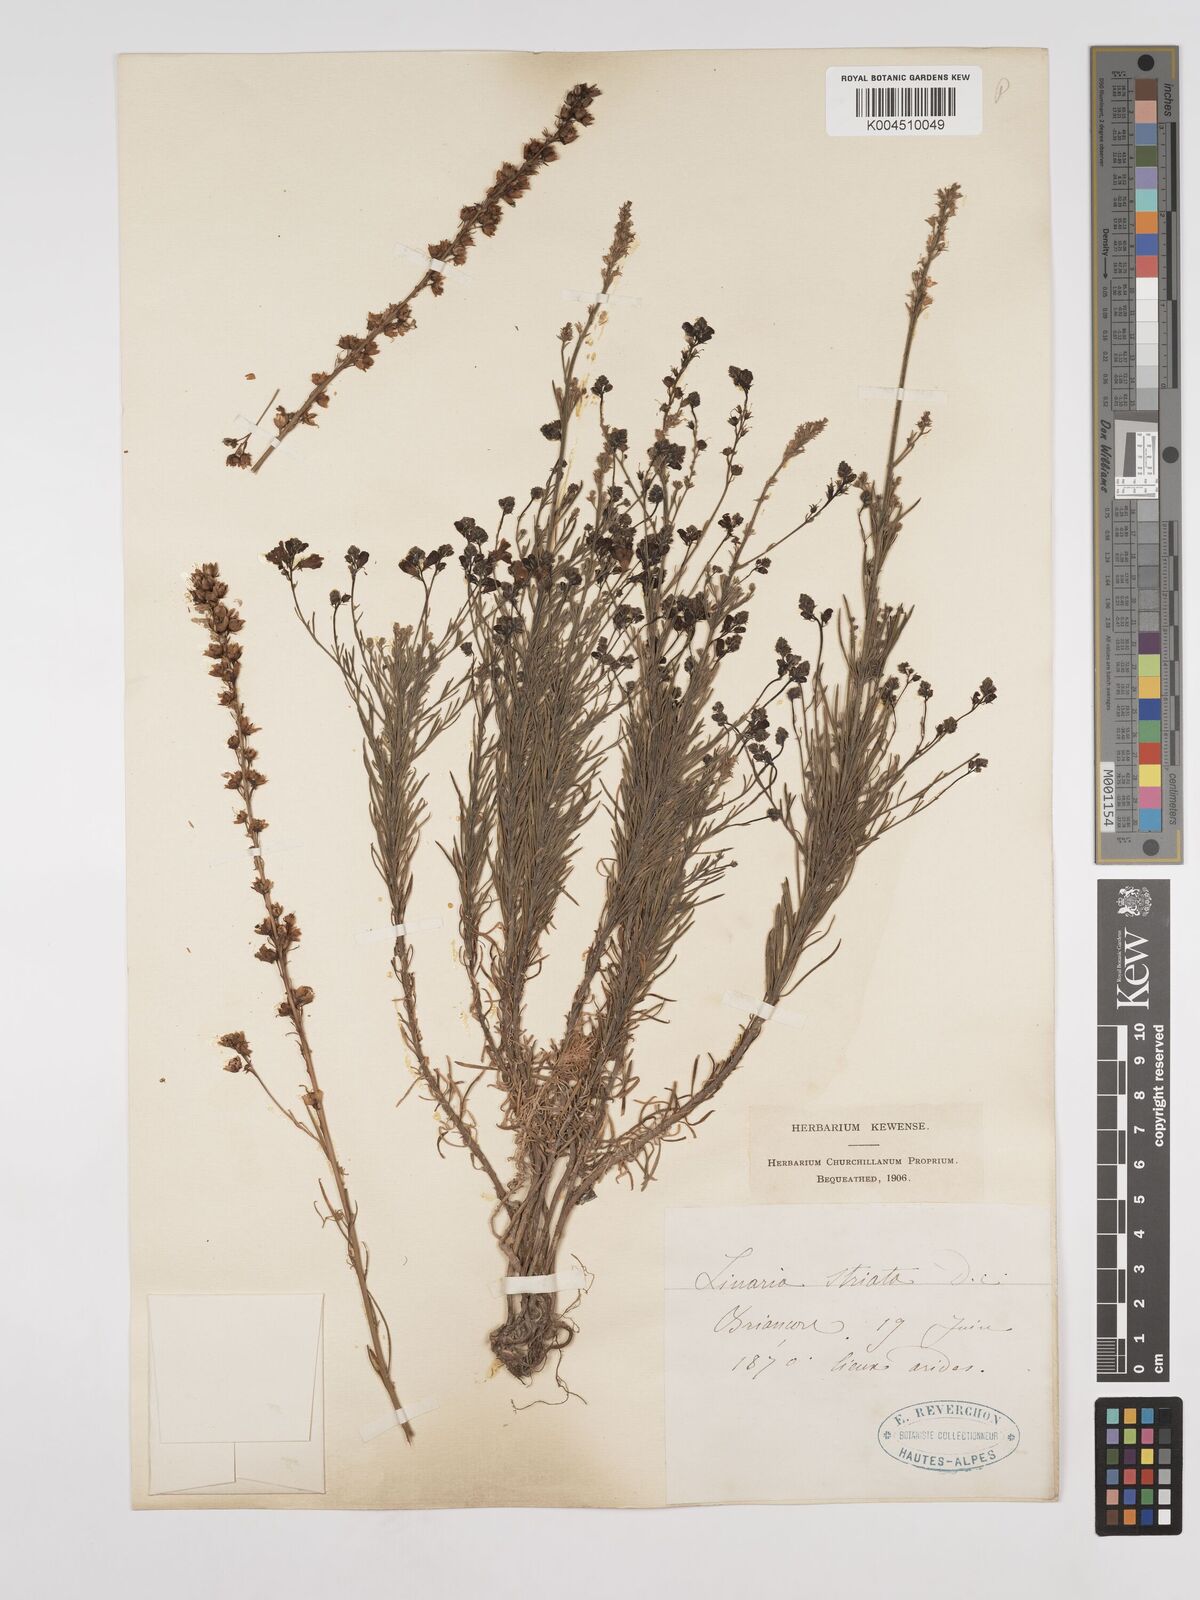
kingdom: Plantae
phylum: Tracheophyta
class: Magnoliopsida
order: Lamiales
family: Plantaginaceae
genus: Linaria
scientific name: Linaria repens
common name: Pale toadflax
